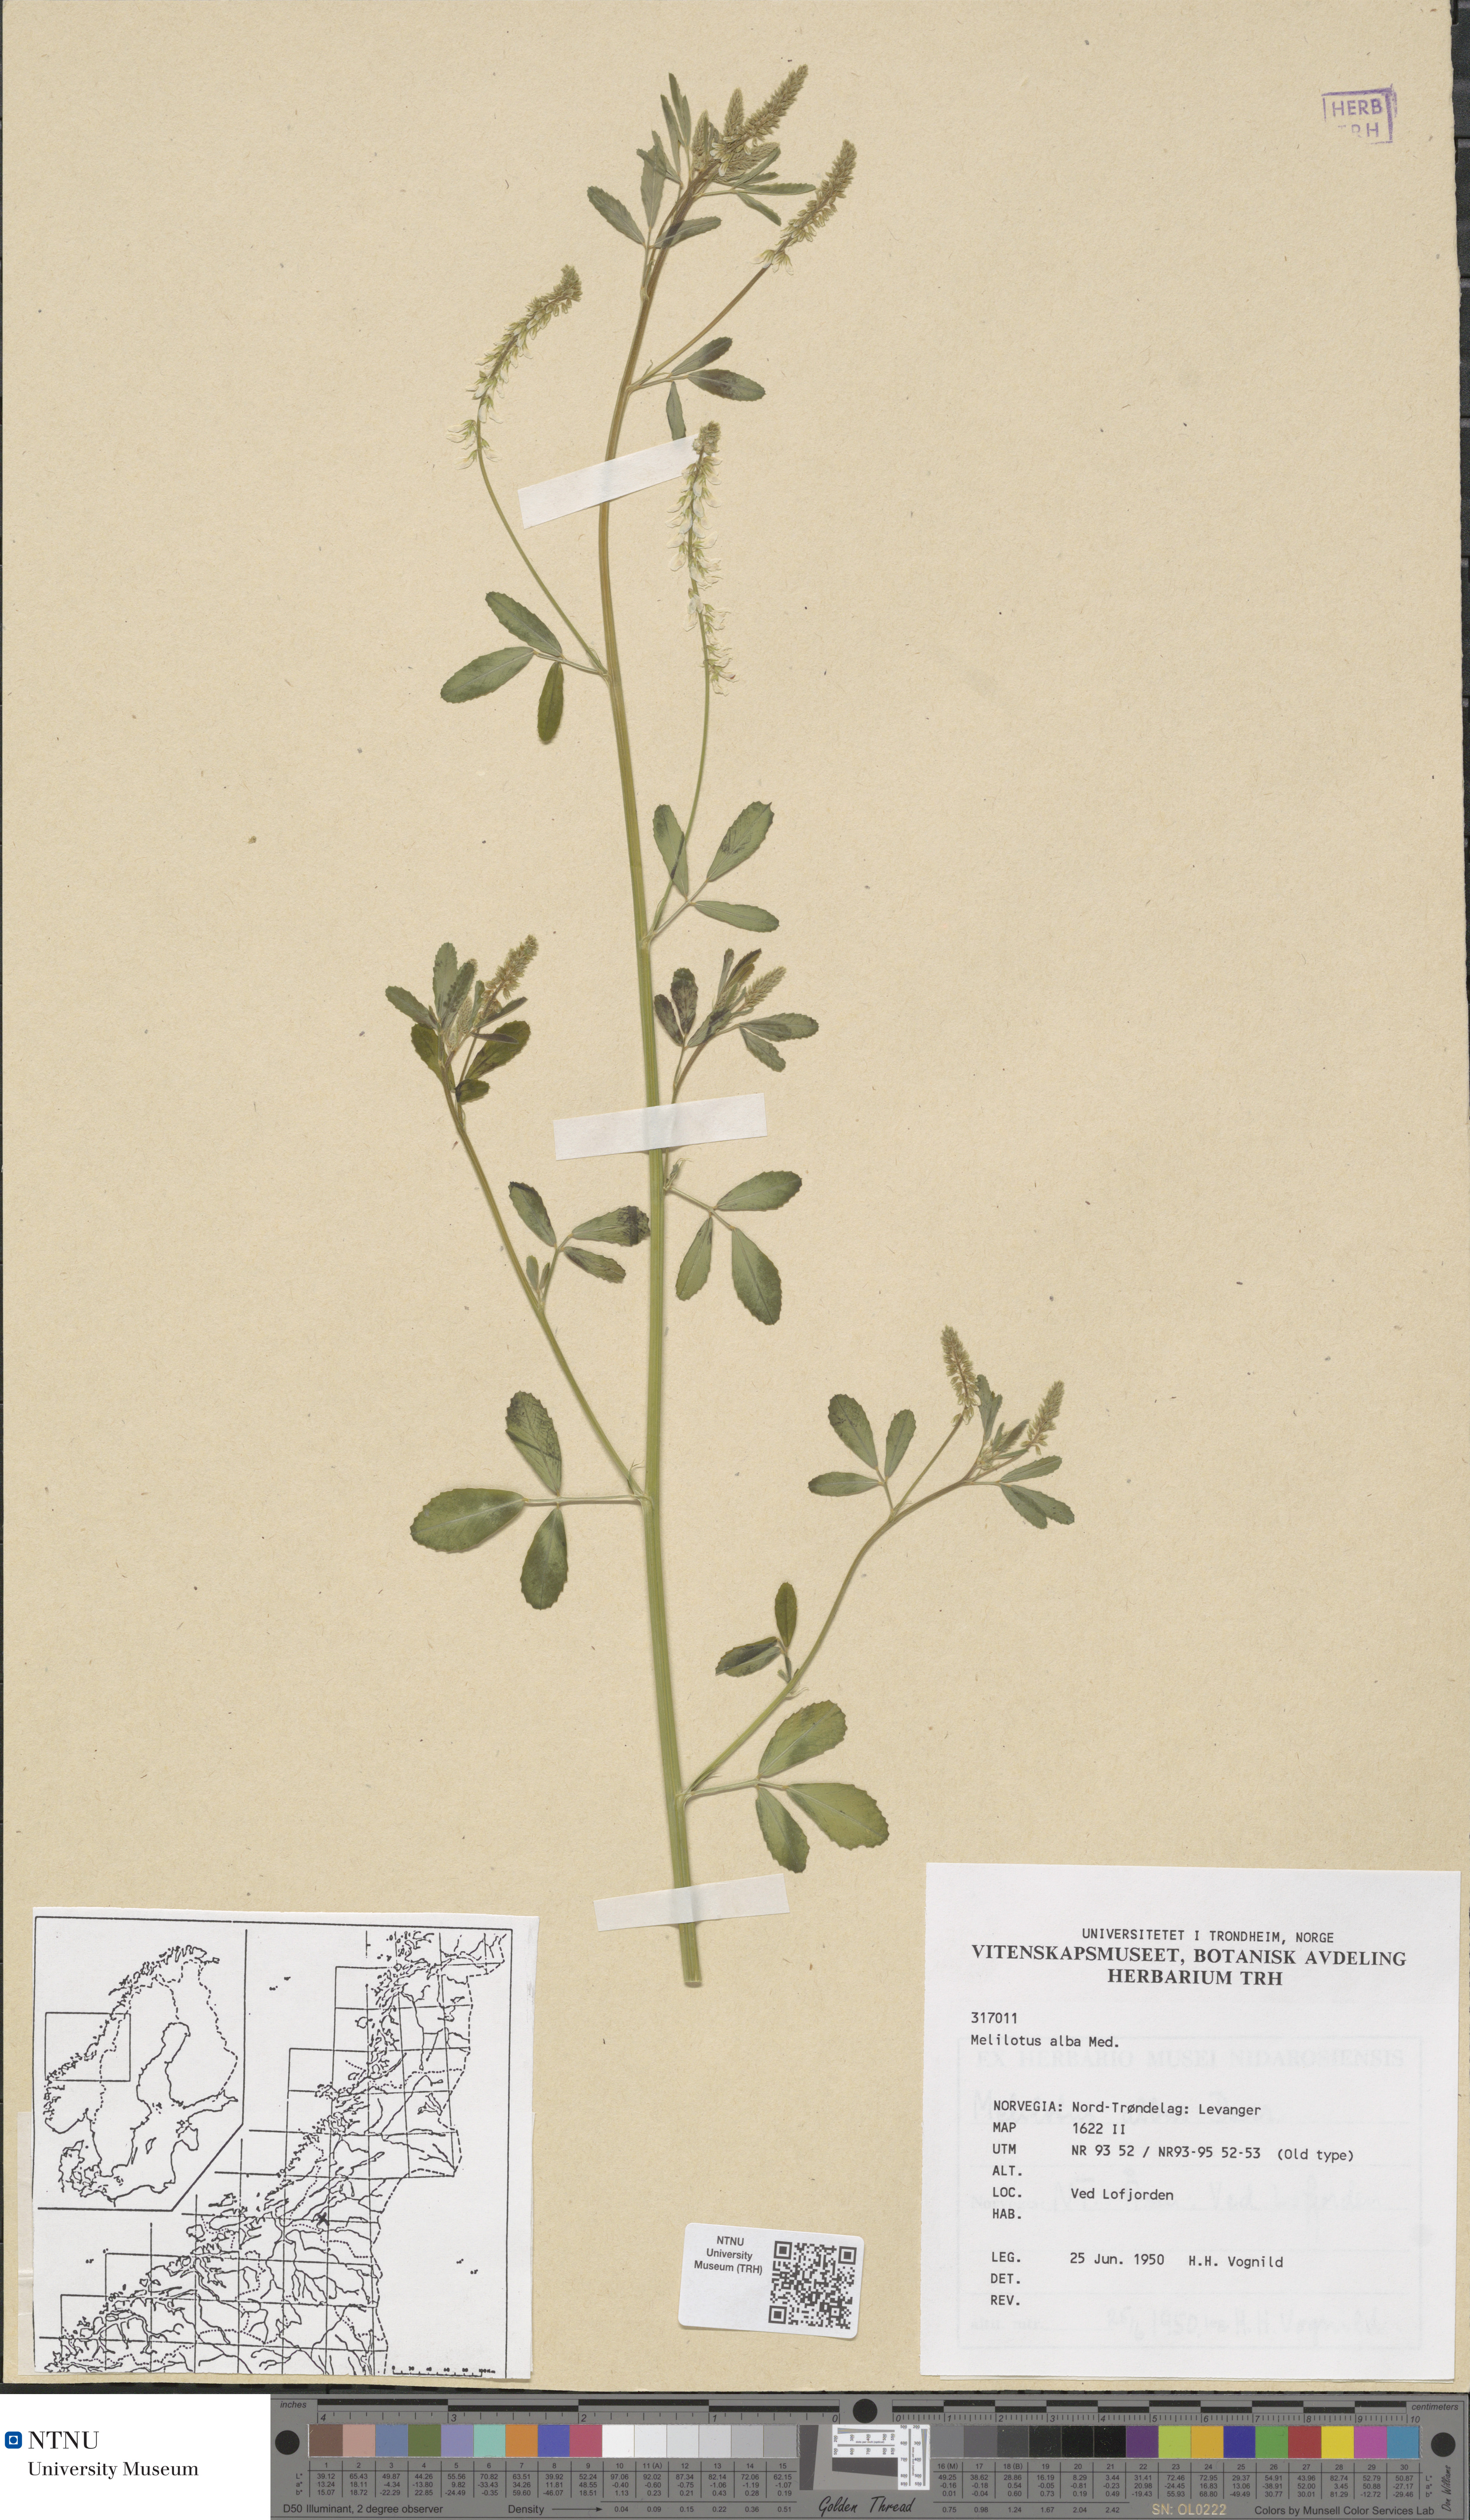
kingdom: Plantae
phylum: Tracheophyta
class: Magnoliopsida
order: Fabales
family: Fabaceae
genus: Melilotus
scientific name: Melilotus albus
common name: White melilot
